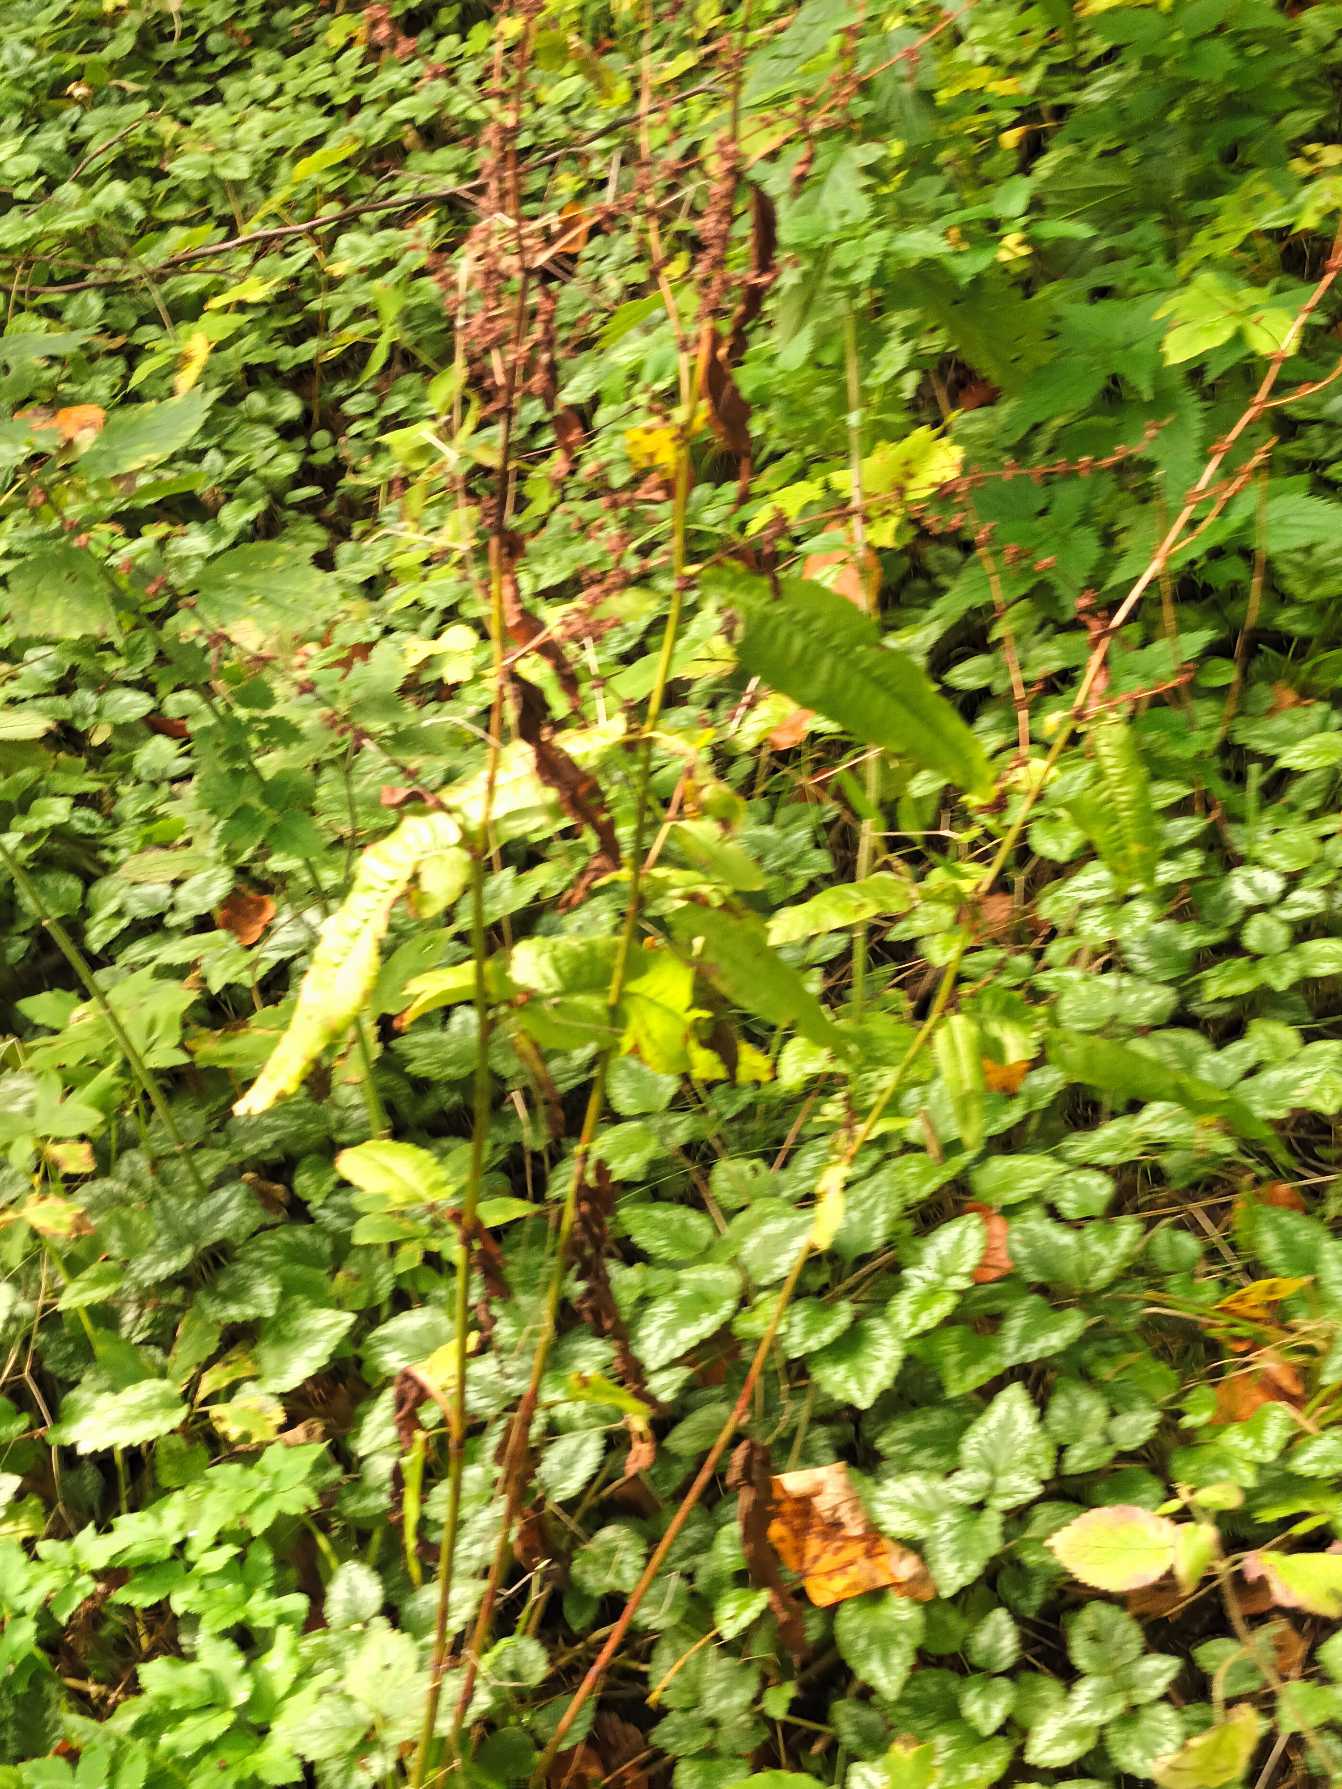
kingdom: Plantae
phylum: Tracheophyta
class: Magnoliopsida
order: Caryophyllales
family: Polygonaceae
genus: Rumex
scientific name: Rumex sanguineus
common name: Skov-skræppe
